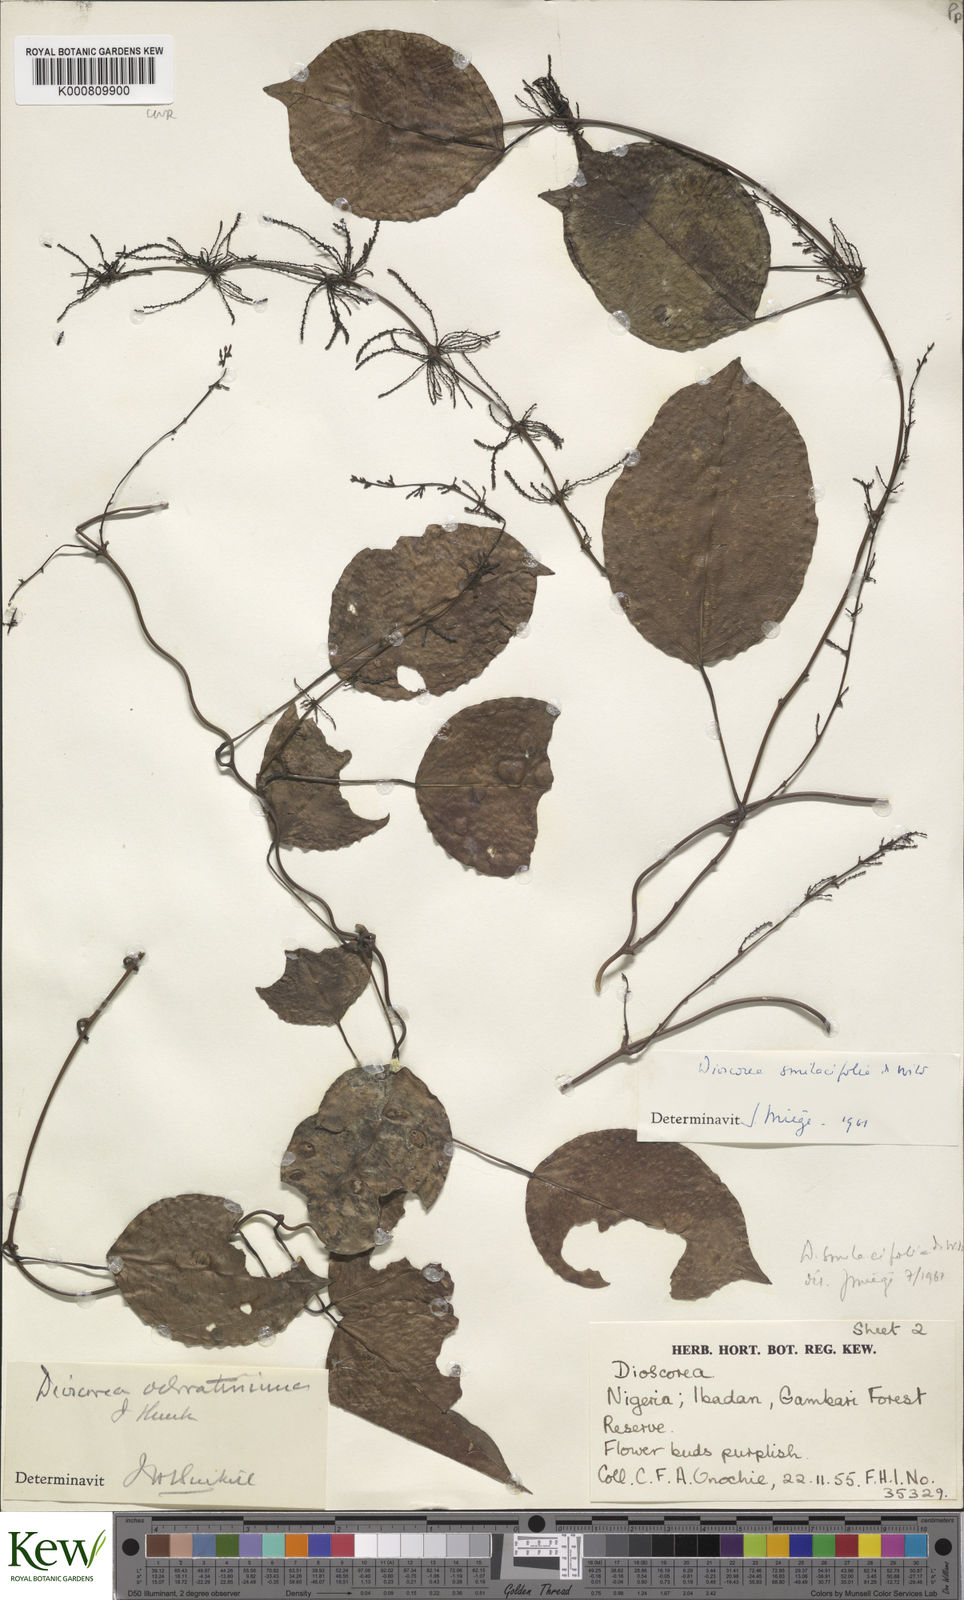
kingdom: Plantae
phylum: Tracheophyta
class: Liliopsida
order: Dioscoreales
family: Dioscoreaceae
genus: Dioscorea
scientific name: Dioscorea smilacifolia
